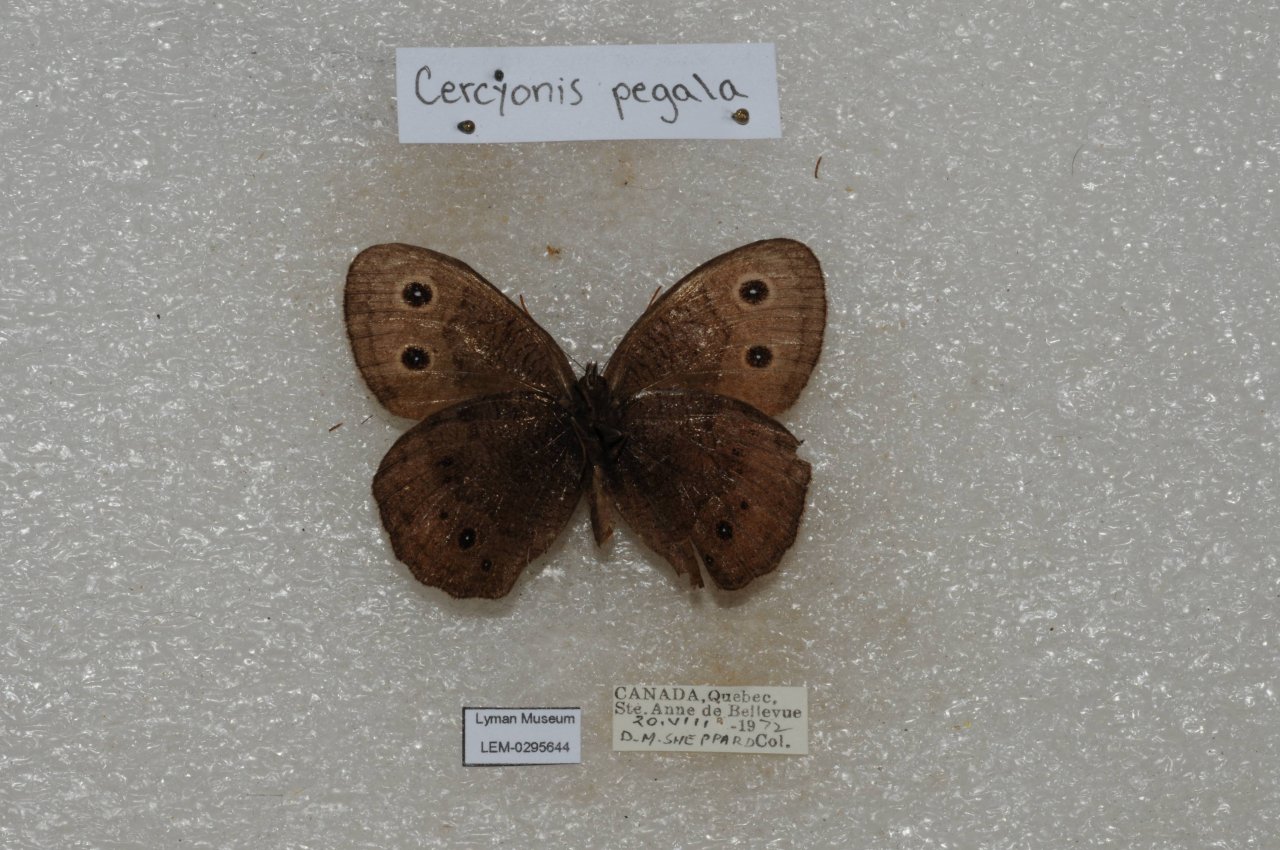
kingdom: Animalia
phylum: Arthropoda
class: Insecta
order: Lepidoptera
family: Nymphalidae
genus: Cercyonis
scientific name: Cercyonis pegala
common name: Common Wood-Nymph
